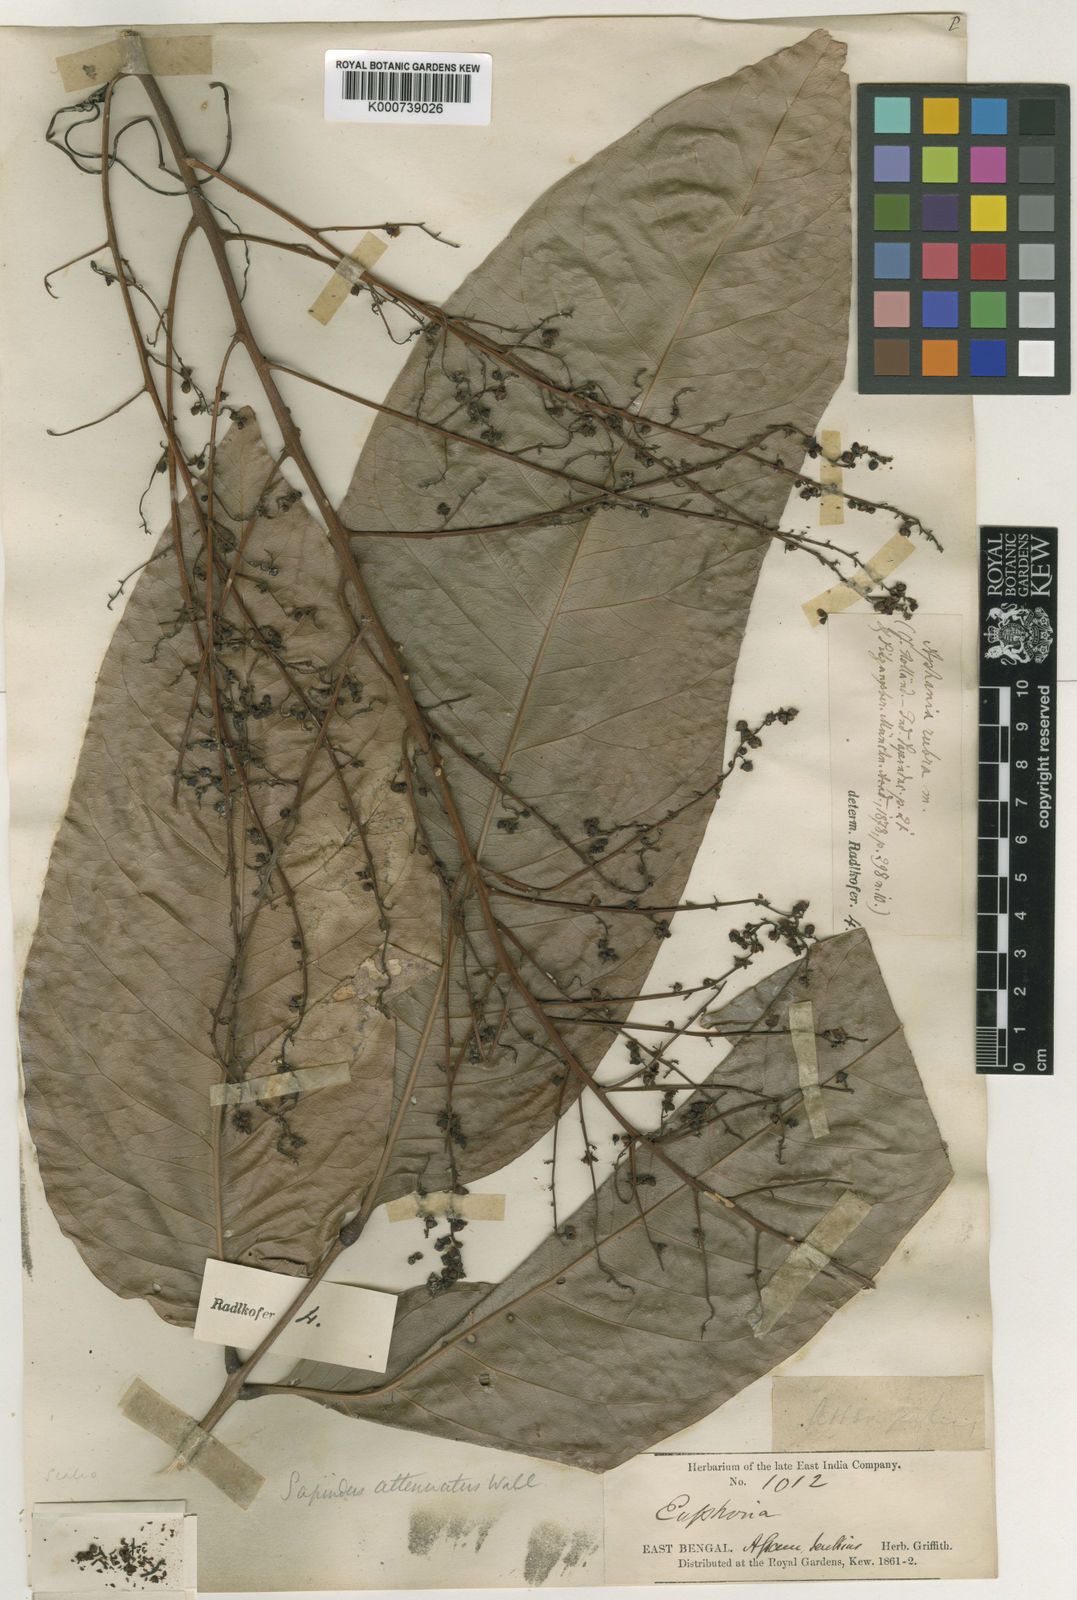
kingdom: Plantae
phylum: Tracheophyta
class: Magnoliopsida
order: Sapindales
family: Sapindaceae
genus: Lepisanthes
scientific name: Lepisanthes senegalensis
